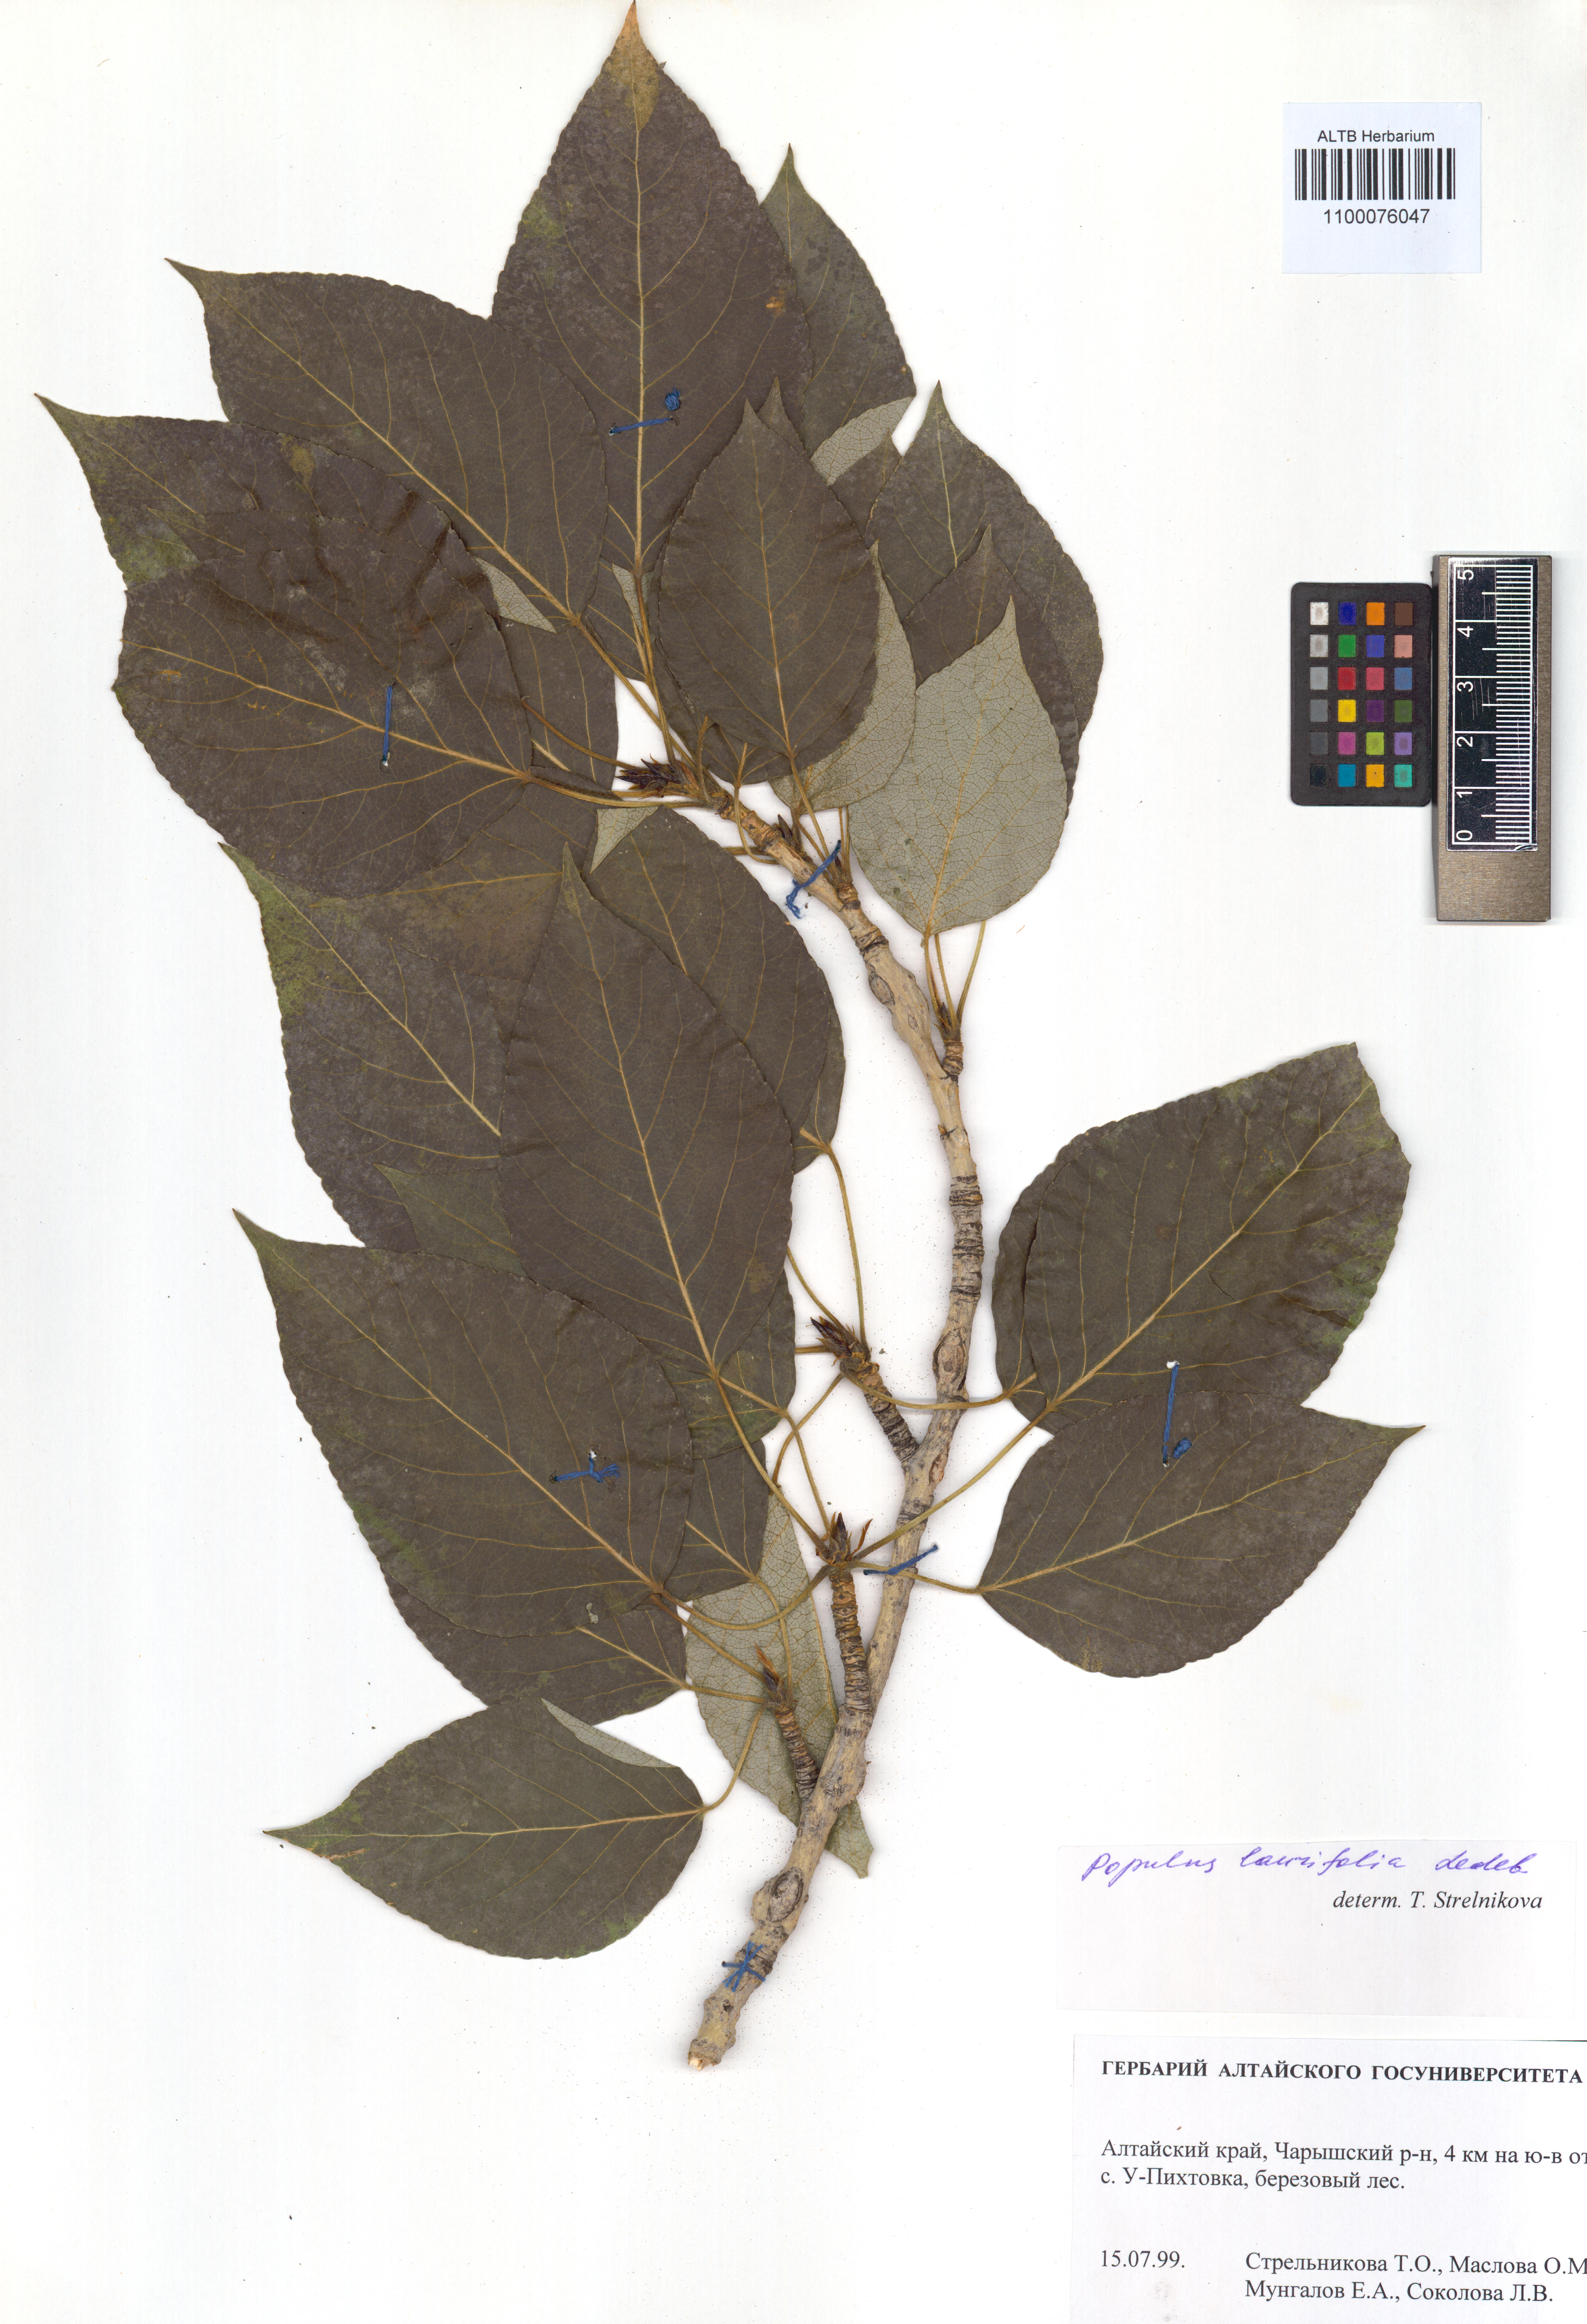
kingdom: Plantae
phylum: Tracheophyta
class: Magnoliopsida
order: Malpighiales
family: Salicaceae
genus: Populus
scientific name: Populus laurifolia
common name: Laurel-leaf poplar
